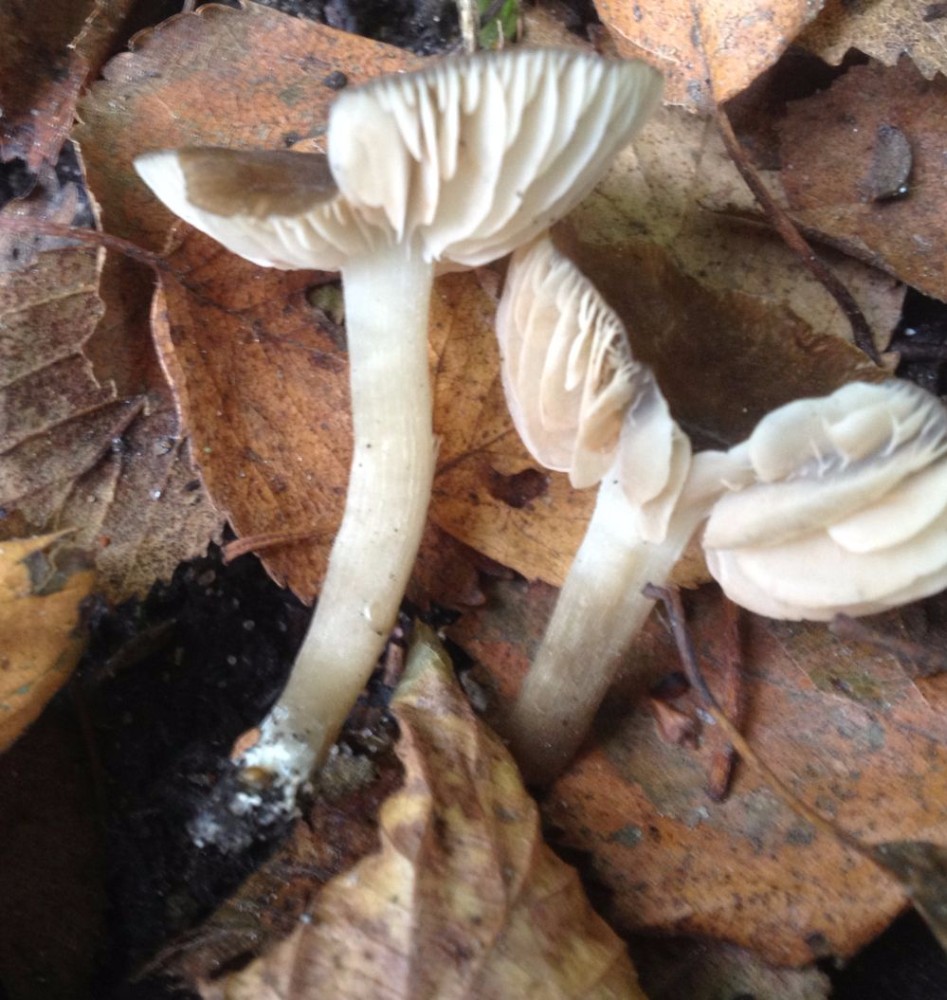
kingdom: Fungi
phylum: Basidiomycota
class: Agaricomycetes
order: Agaricales
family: Entolomataceae
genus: Entoloma
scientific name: Entoloma
